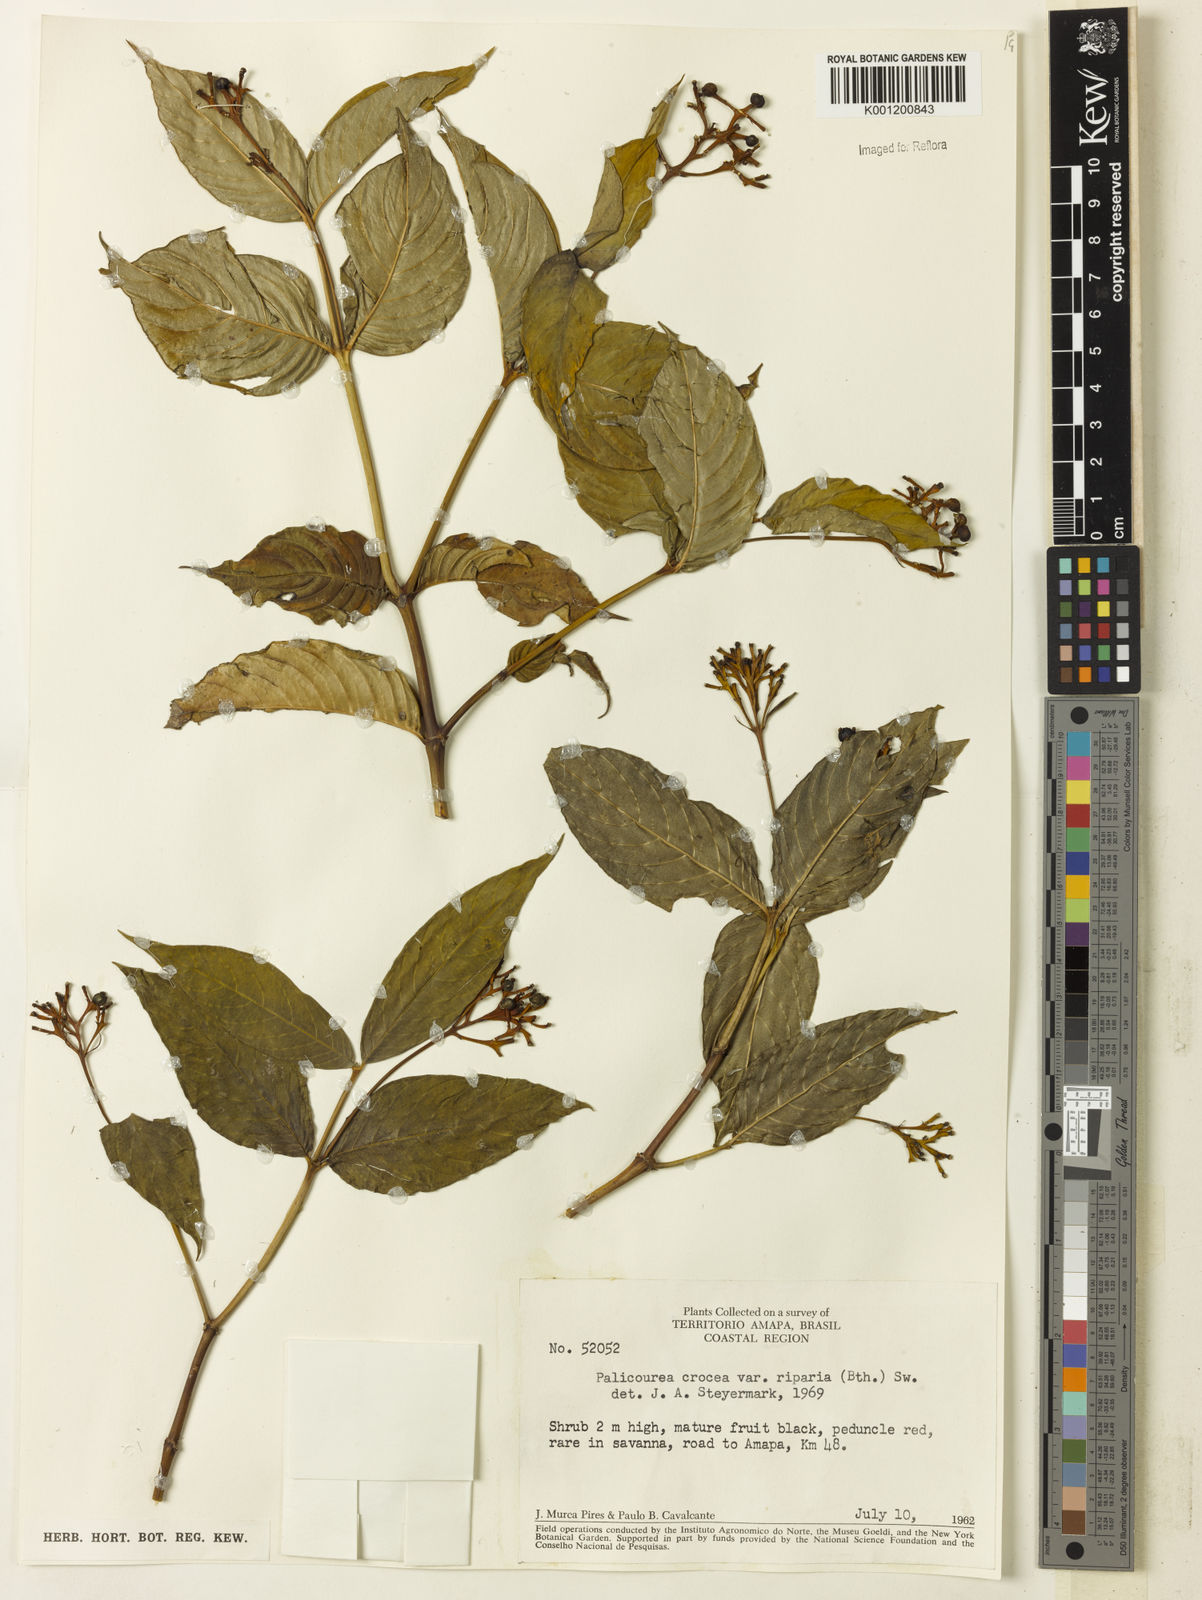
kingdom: Plantae
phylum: Tracheophyta
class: Magnoliopsida
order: Gentianales
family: Rubiaceae
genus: Palicourea
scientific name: Palicourea croceoides
